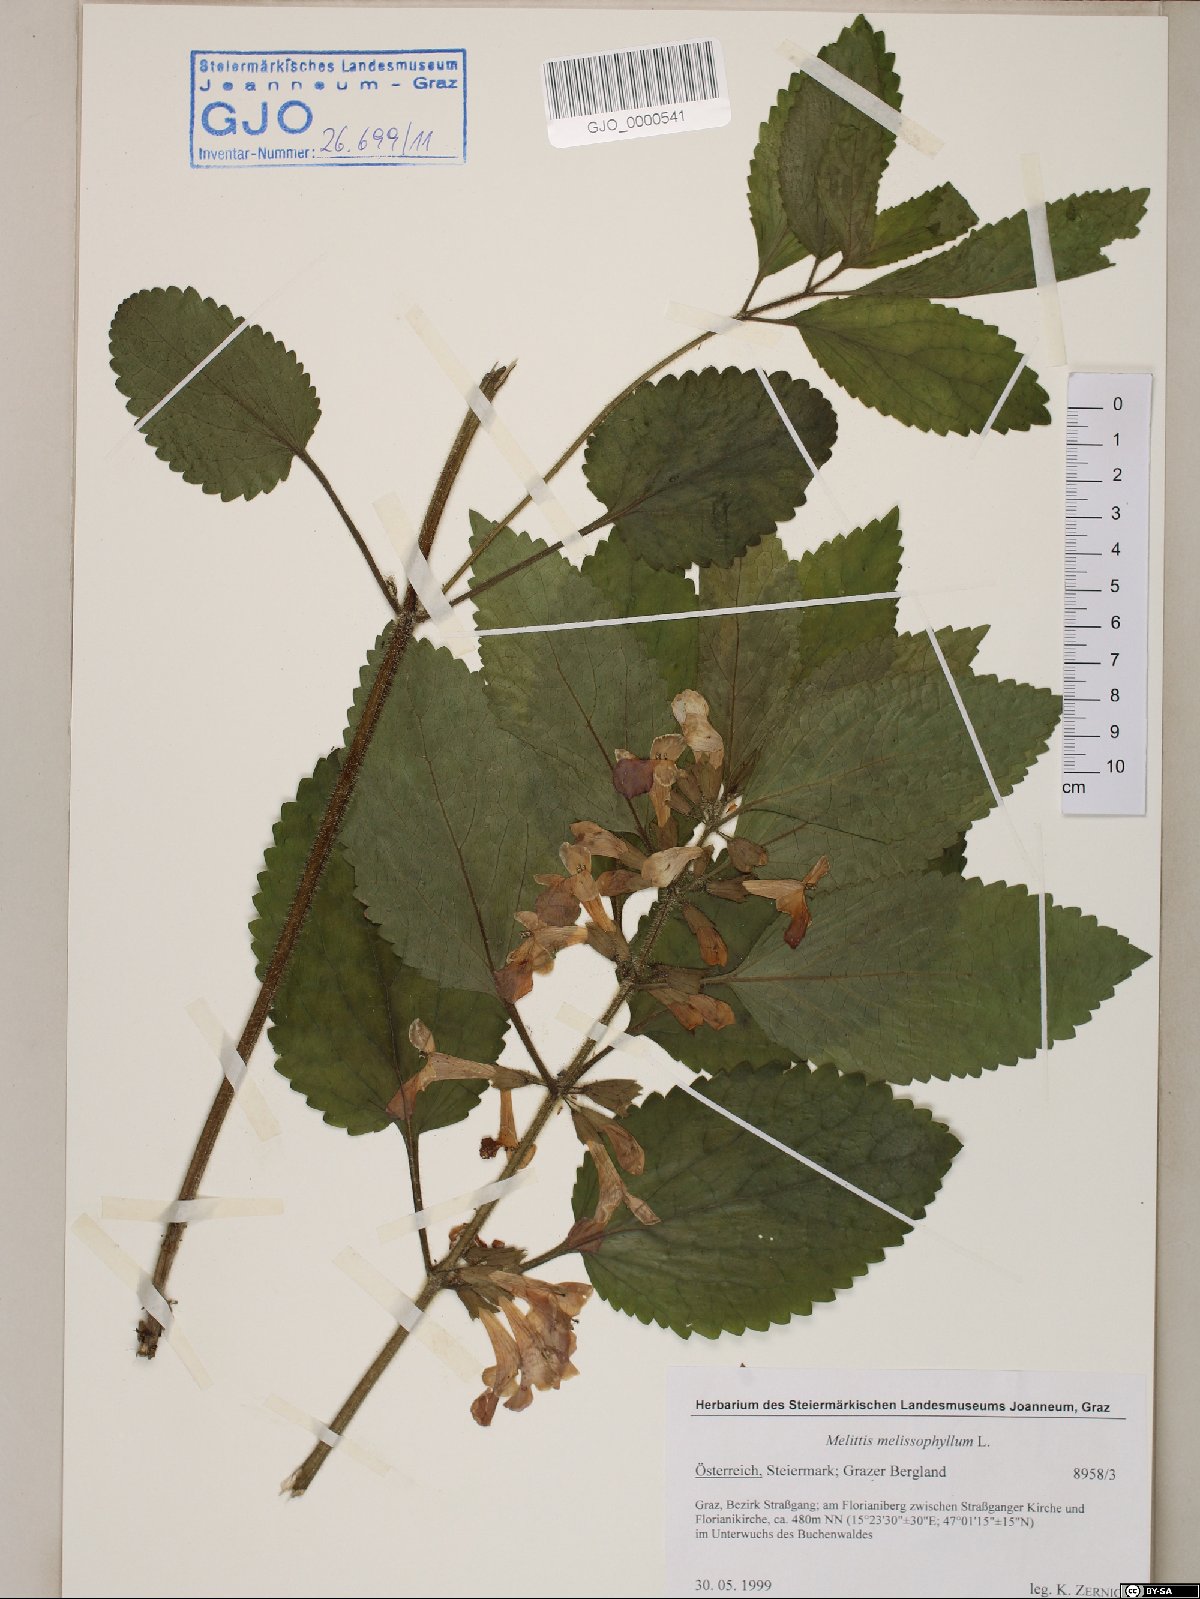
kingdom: Plantae
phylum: Tracheophyta
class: Magnoliopsida
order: Lamiales
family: Lamiaceae
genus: Melittis
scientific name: Melittis melissophyllum
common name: Bastard balm
